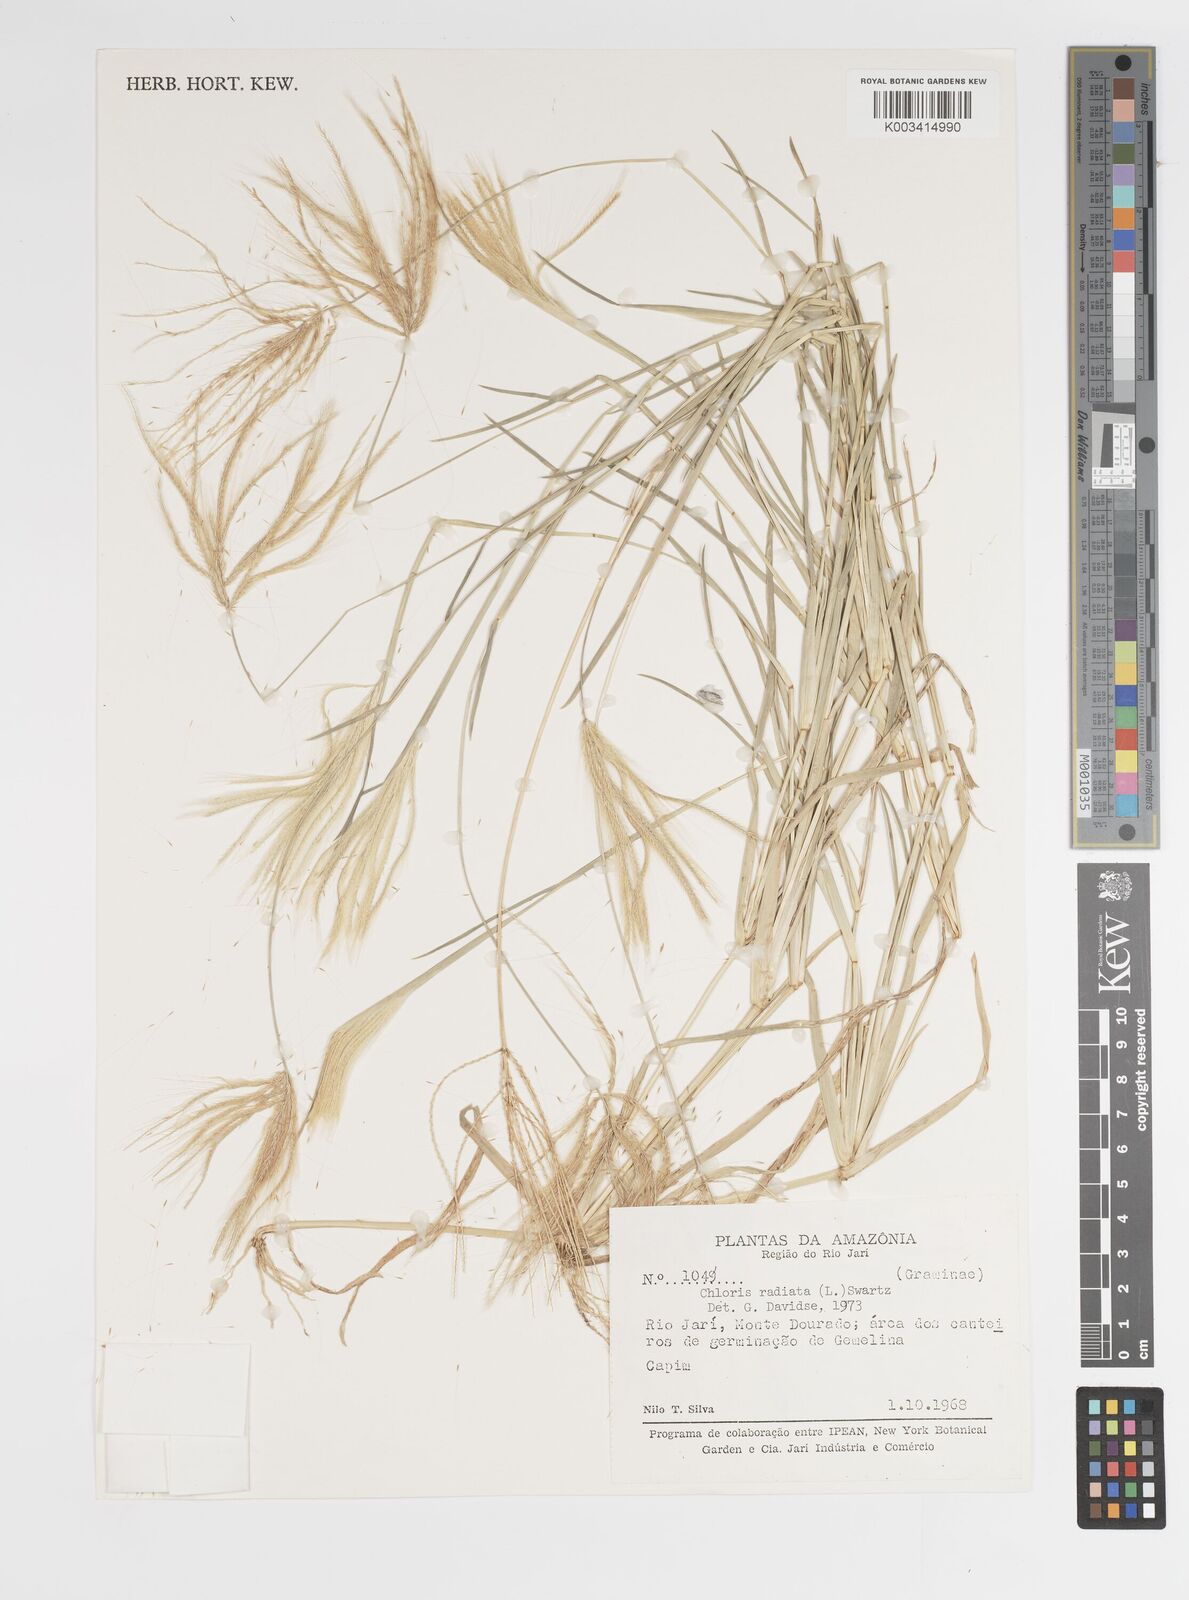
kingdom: Plantae
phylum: Tracheophyta
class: Liliopsida
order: Poales
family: Poaceae
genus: Chloris
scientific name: Chloris pycnothrix
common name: Spiderweb chloris
